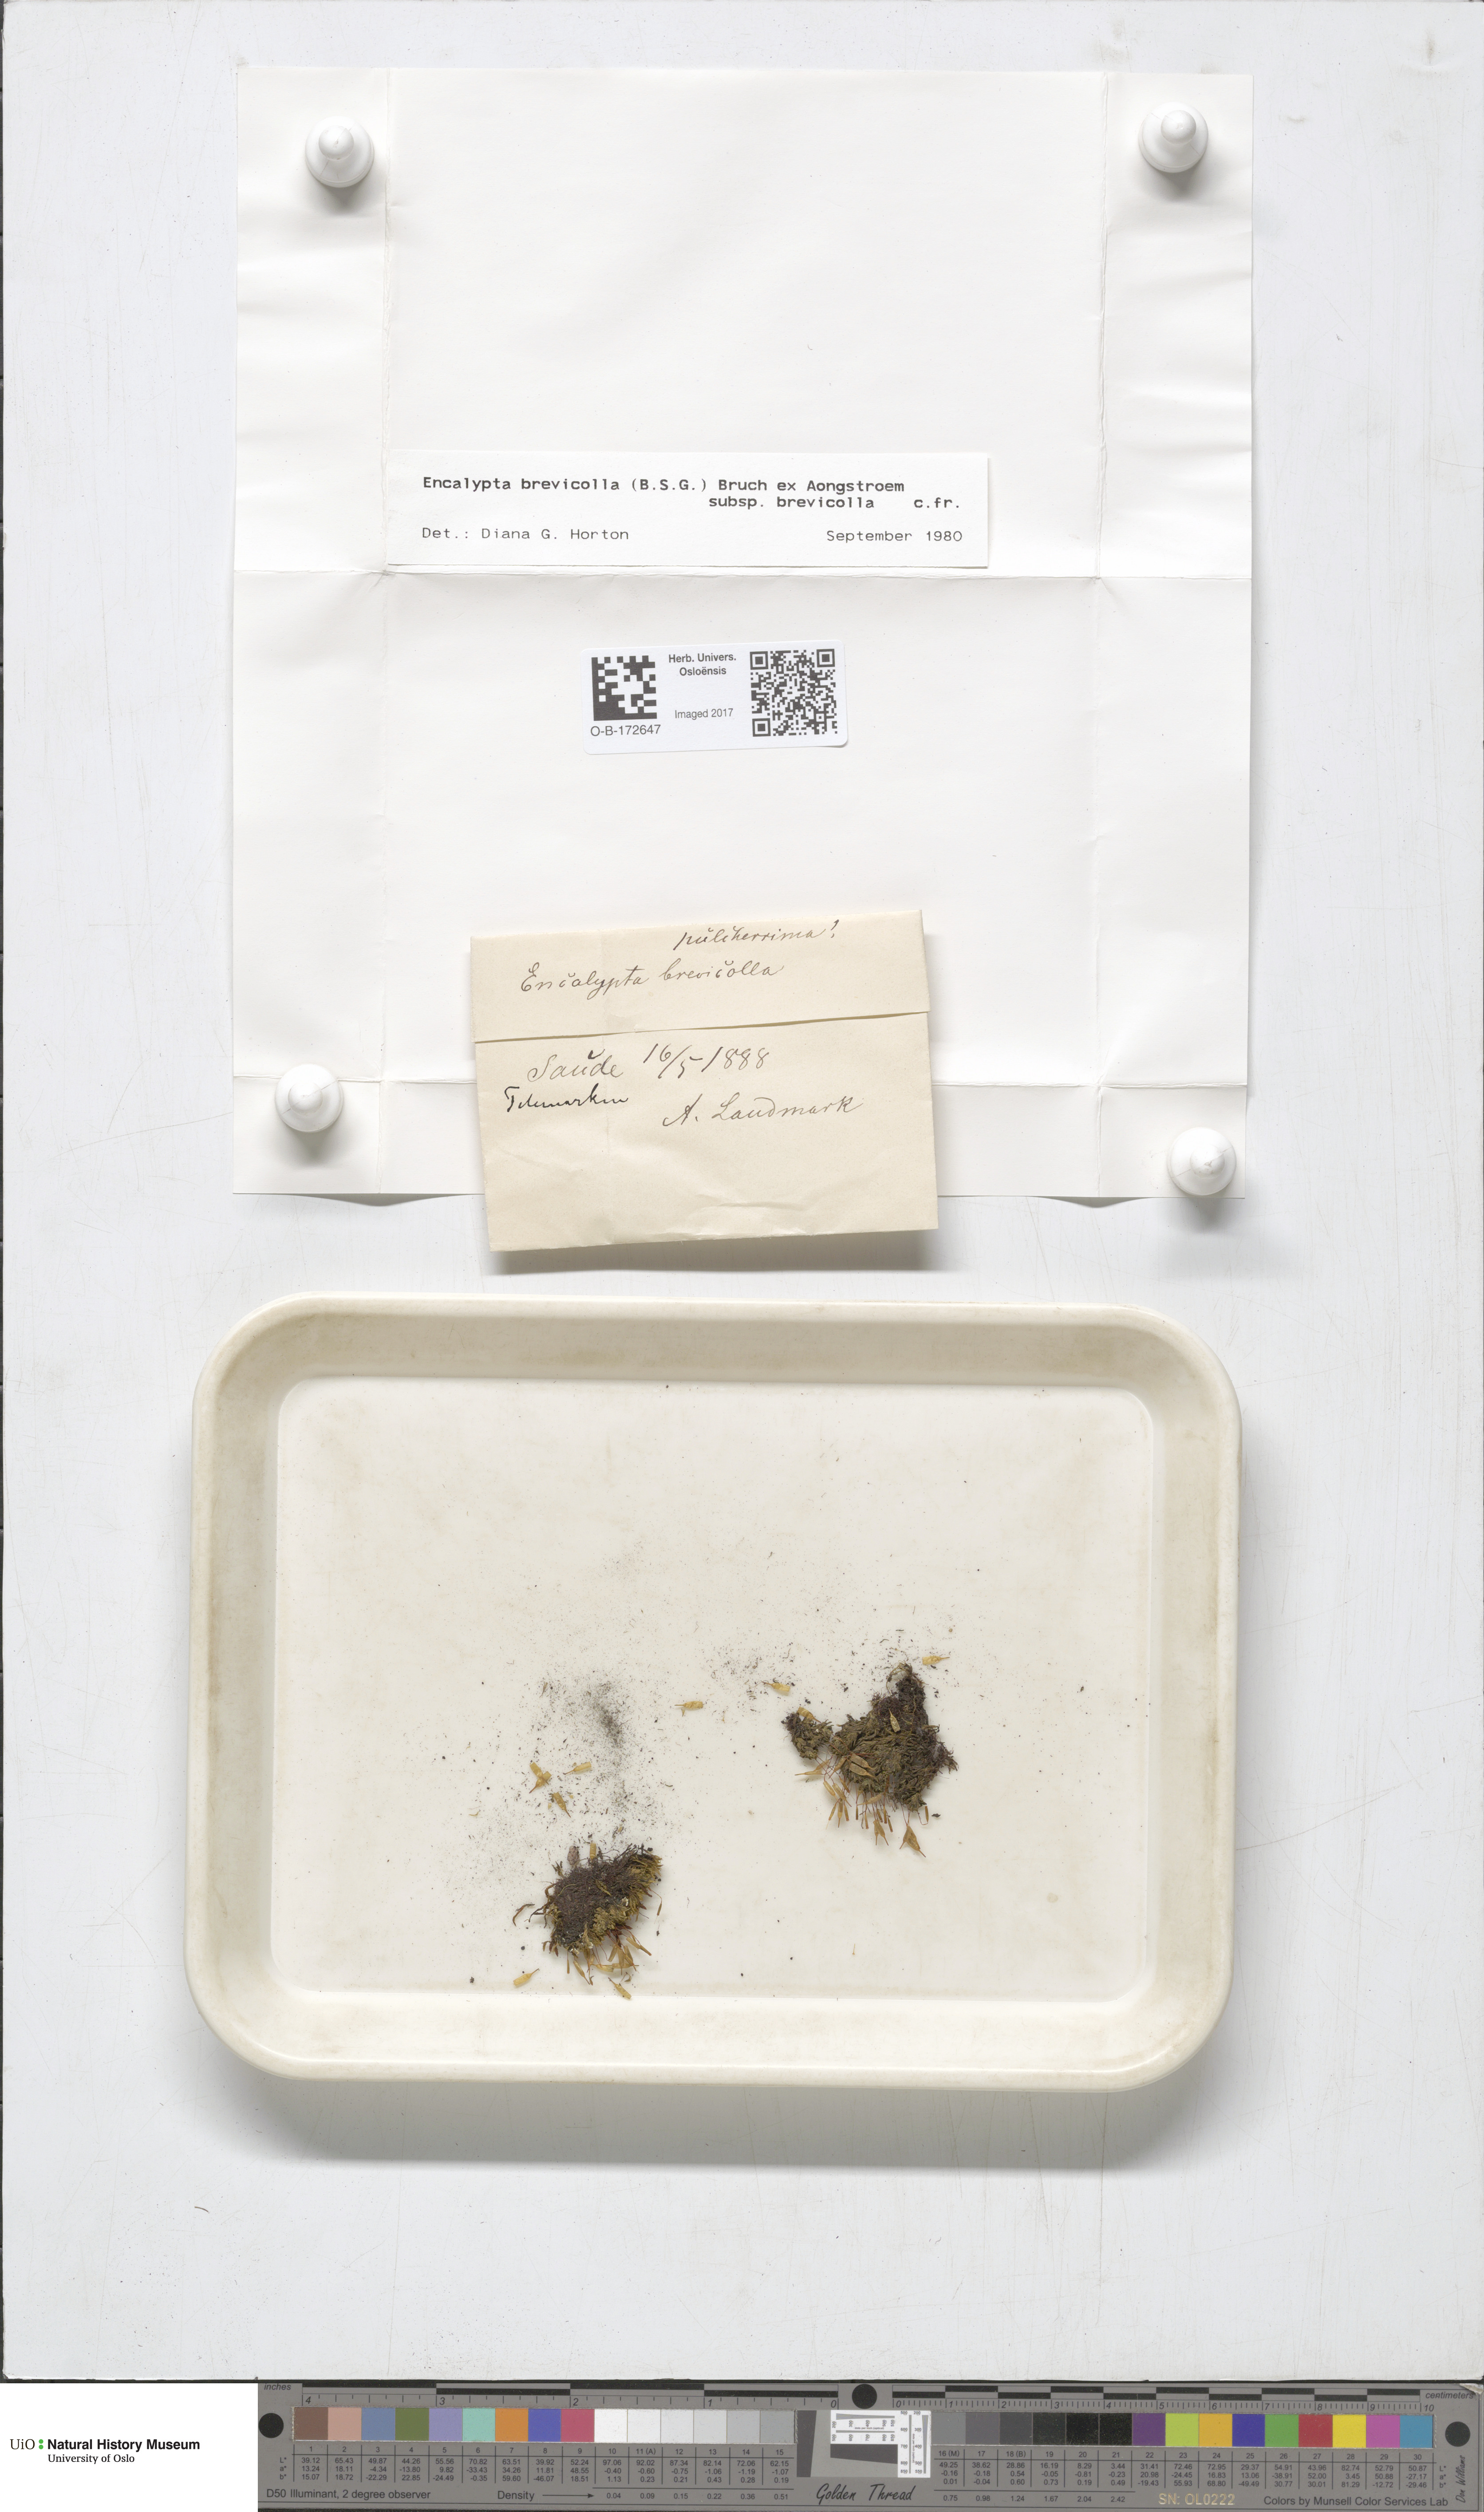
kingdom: Plantae
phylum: Bryophyta
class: Bryopsida
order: Encalyptales
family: Encalyptaceae
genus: Encalypta
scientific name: Encalypta brevicolla
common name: White-mouthed extinguisher-moss
